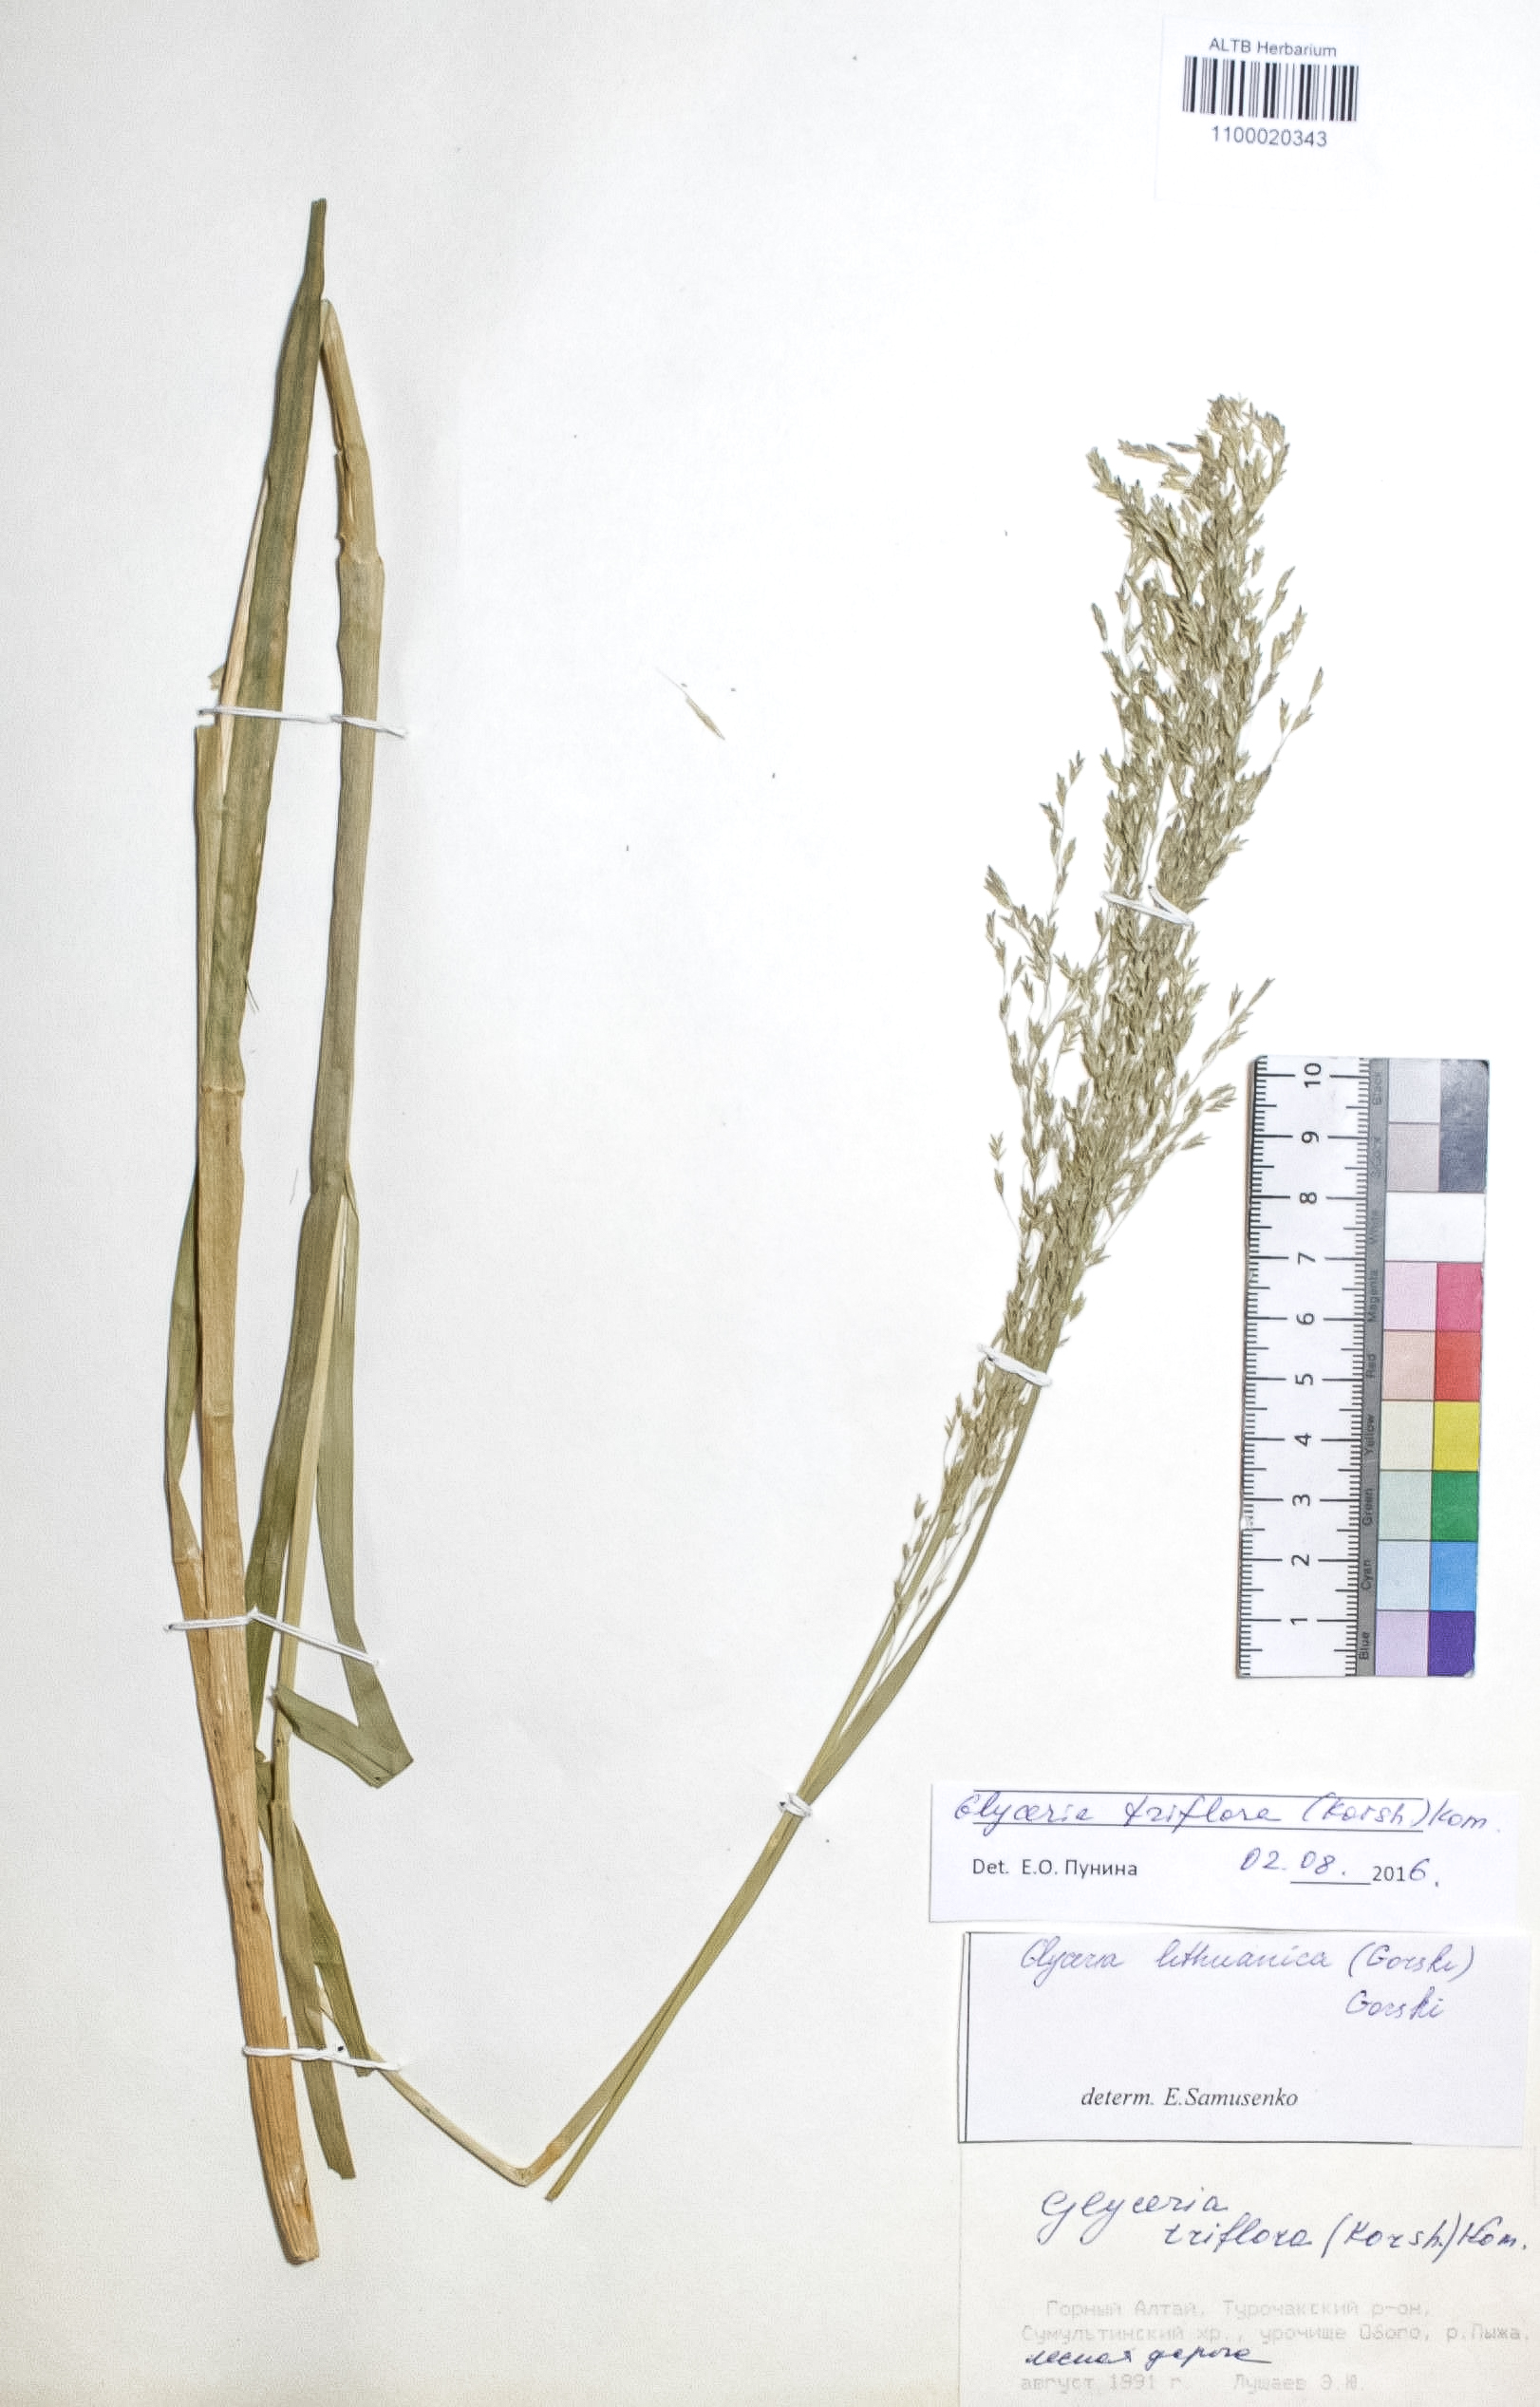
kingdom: Plantae
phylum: Tracheophyta
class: Liliopsida
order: Poales
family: Poaceae
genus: Glyceria
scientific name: Glyceria lithuanica
